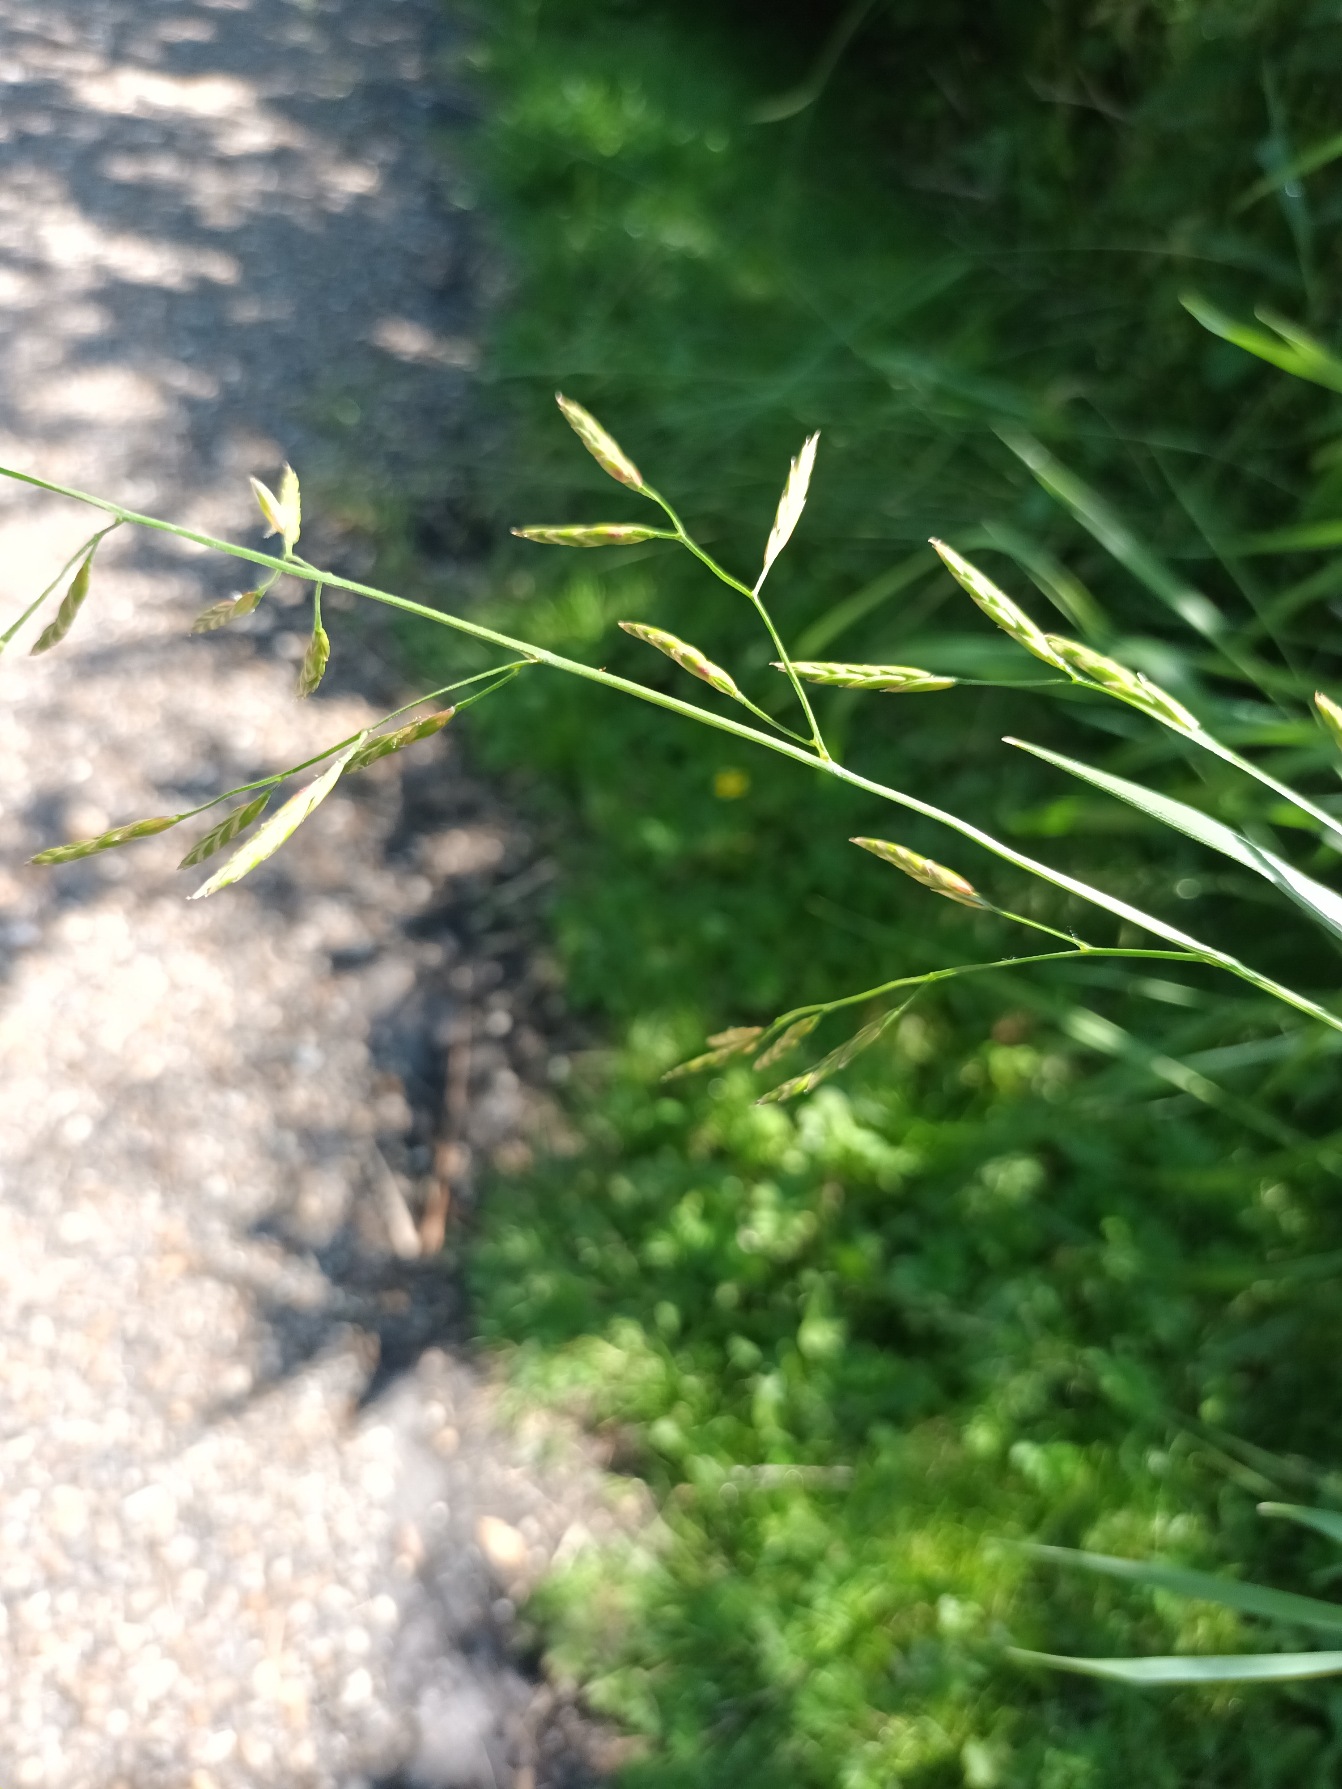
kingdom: Plantae
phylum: Tracheophyta
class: Liliopsida
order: Poales
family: Poaceae
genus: Lolium
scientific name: Lolium pratense
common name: Eng-svingel
